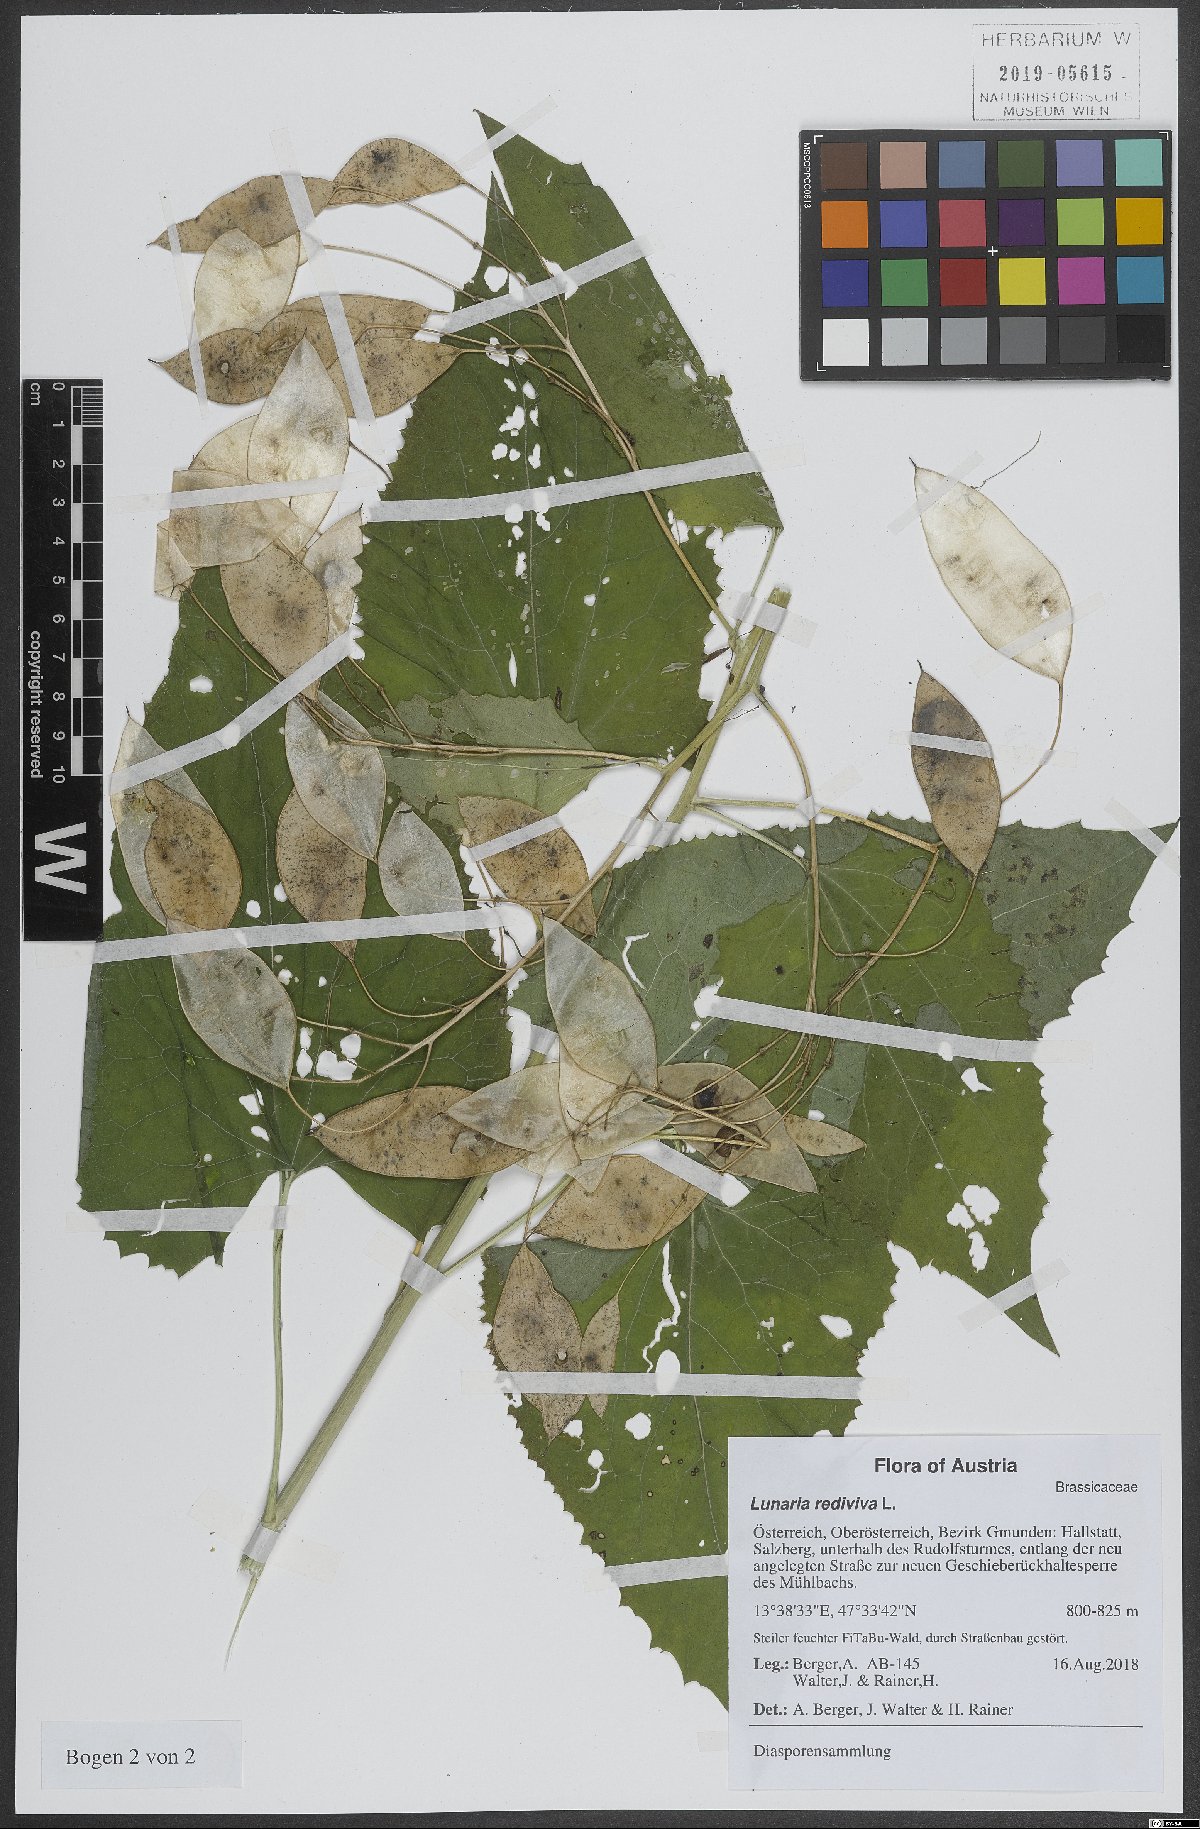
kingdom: Plantae
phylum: Tracheophyta
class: Magnoliopsida
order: Brassicales
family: Brassicaceae
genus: Lunaria
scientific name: Lunaria rediviva
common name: Perennial honesty
